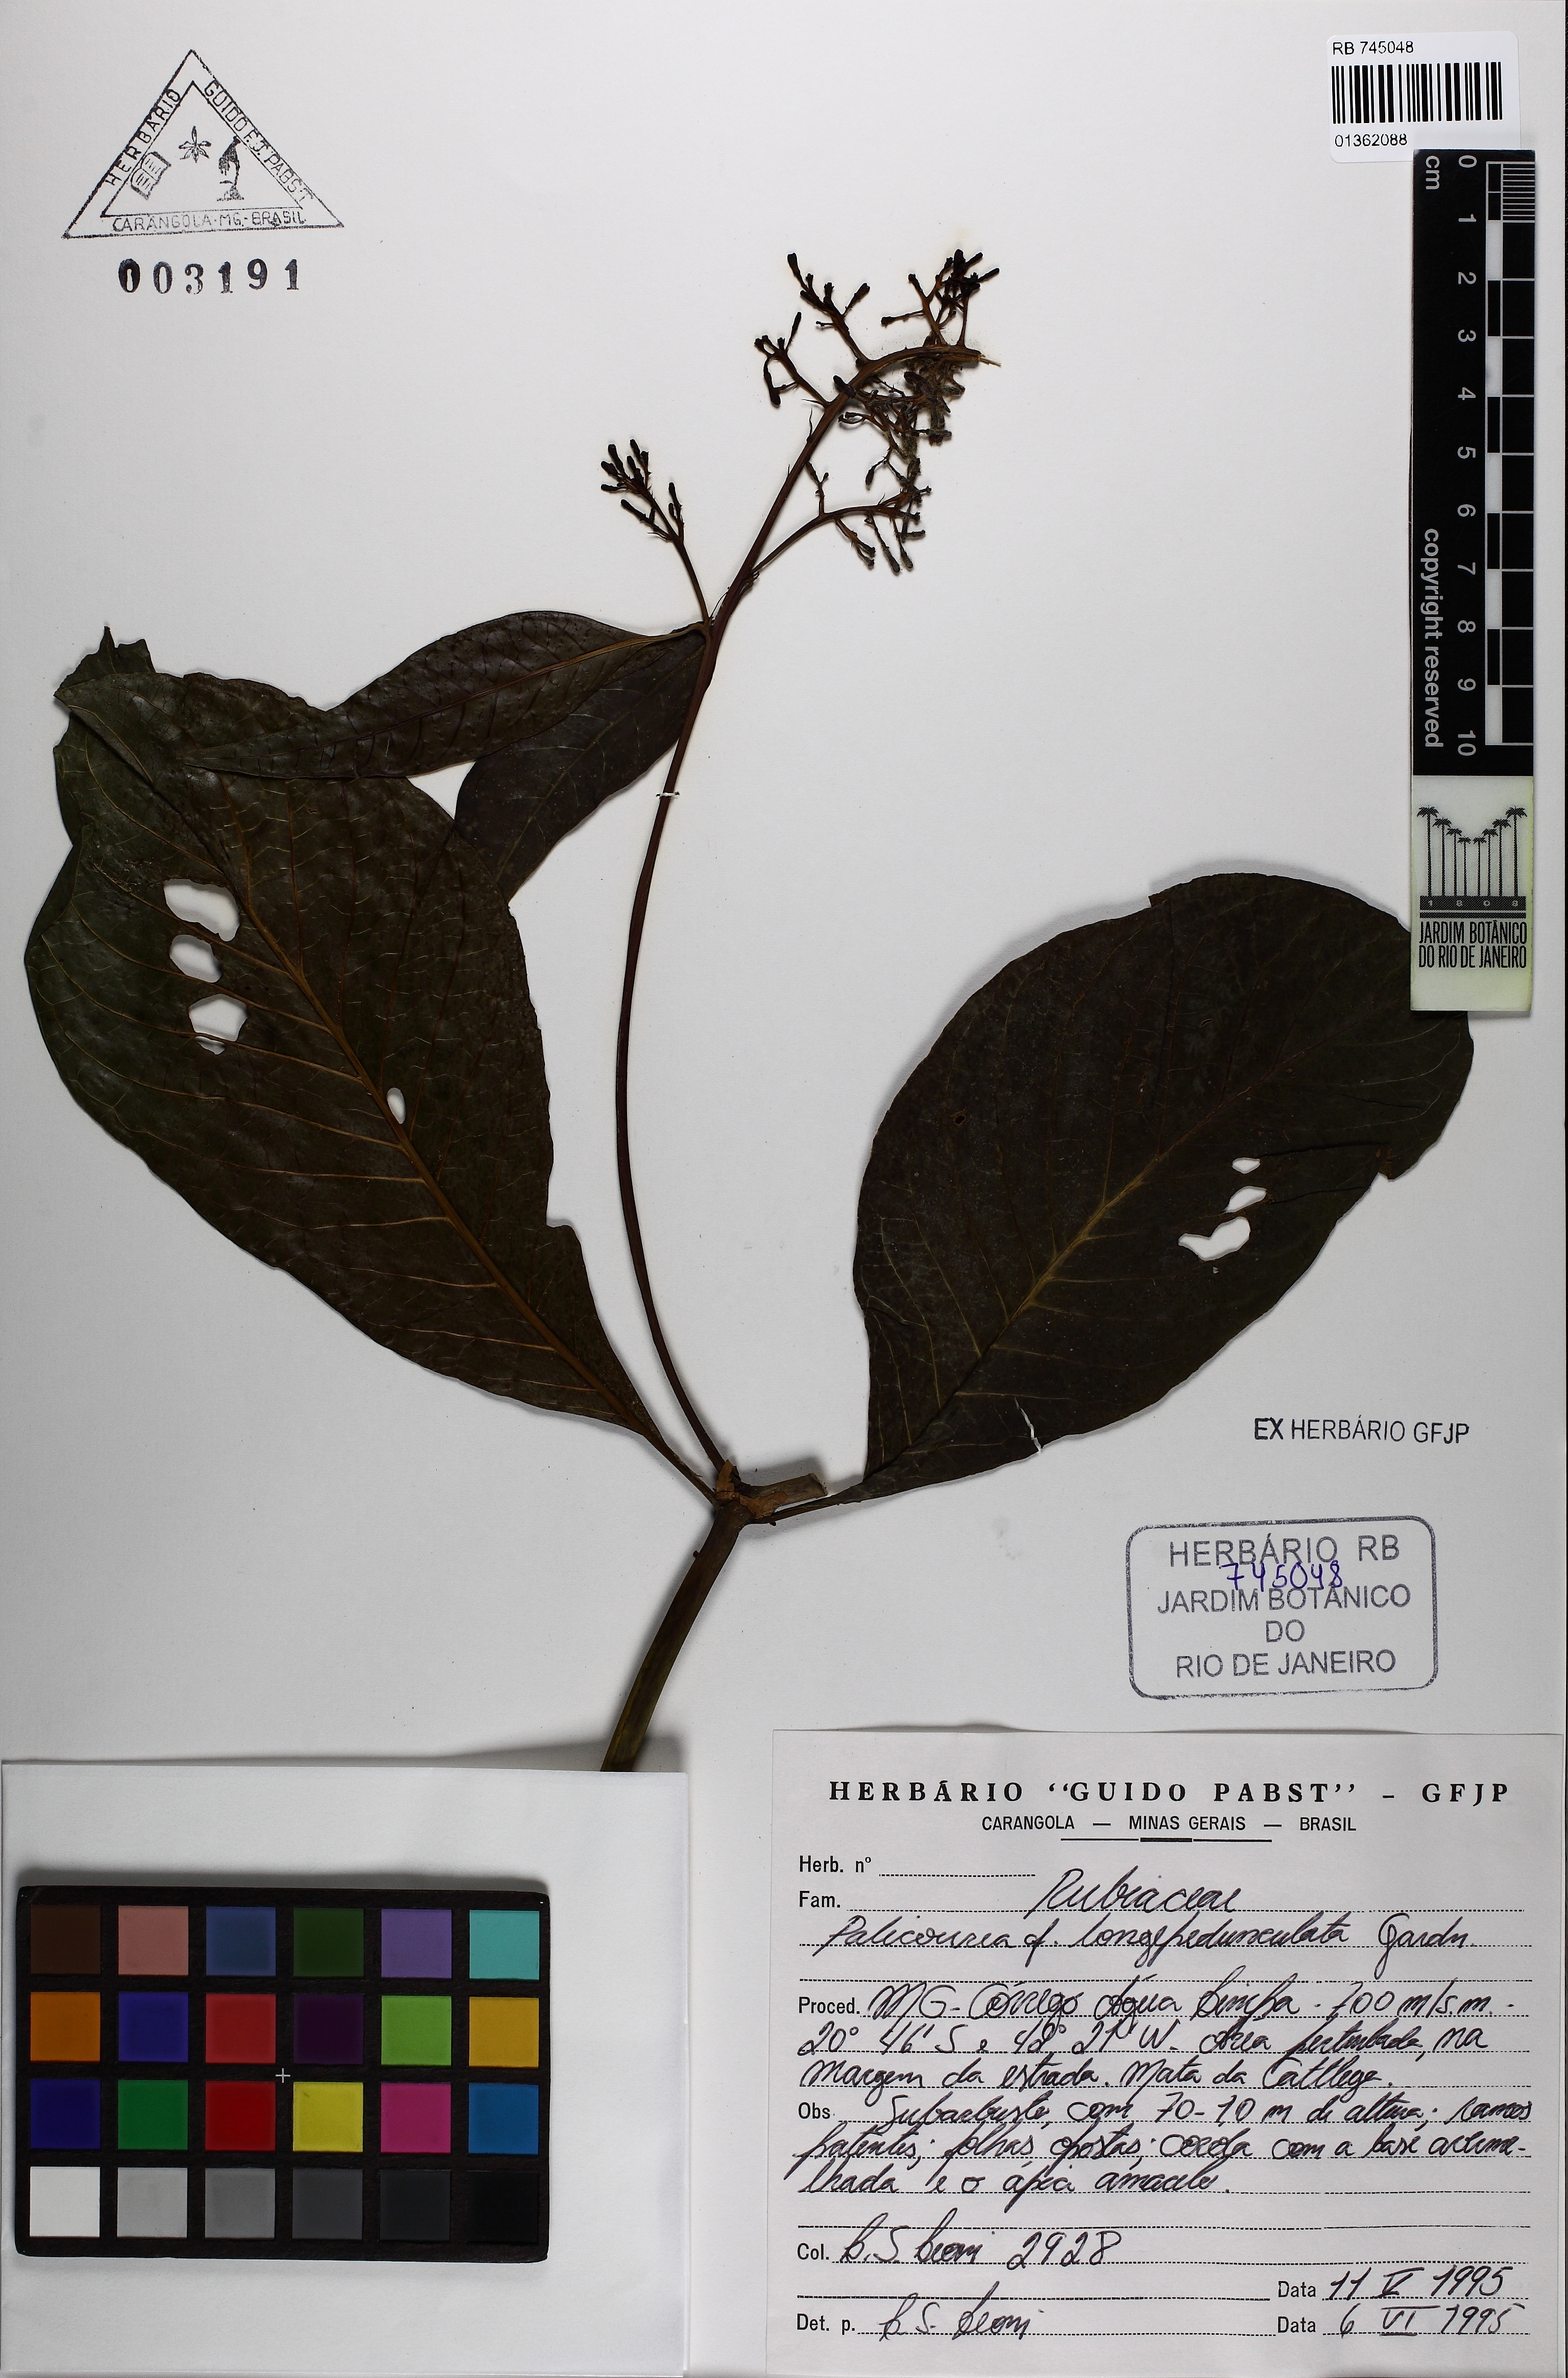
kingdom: Plantae
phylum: Tracheophyta
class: Magnoliopsida
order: Gentianales
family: Rubiaceae
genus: Palicourea
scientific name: Palicourea longipedunculata
